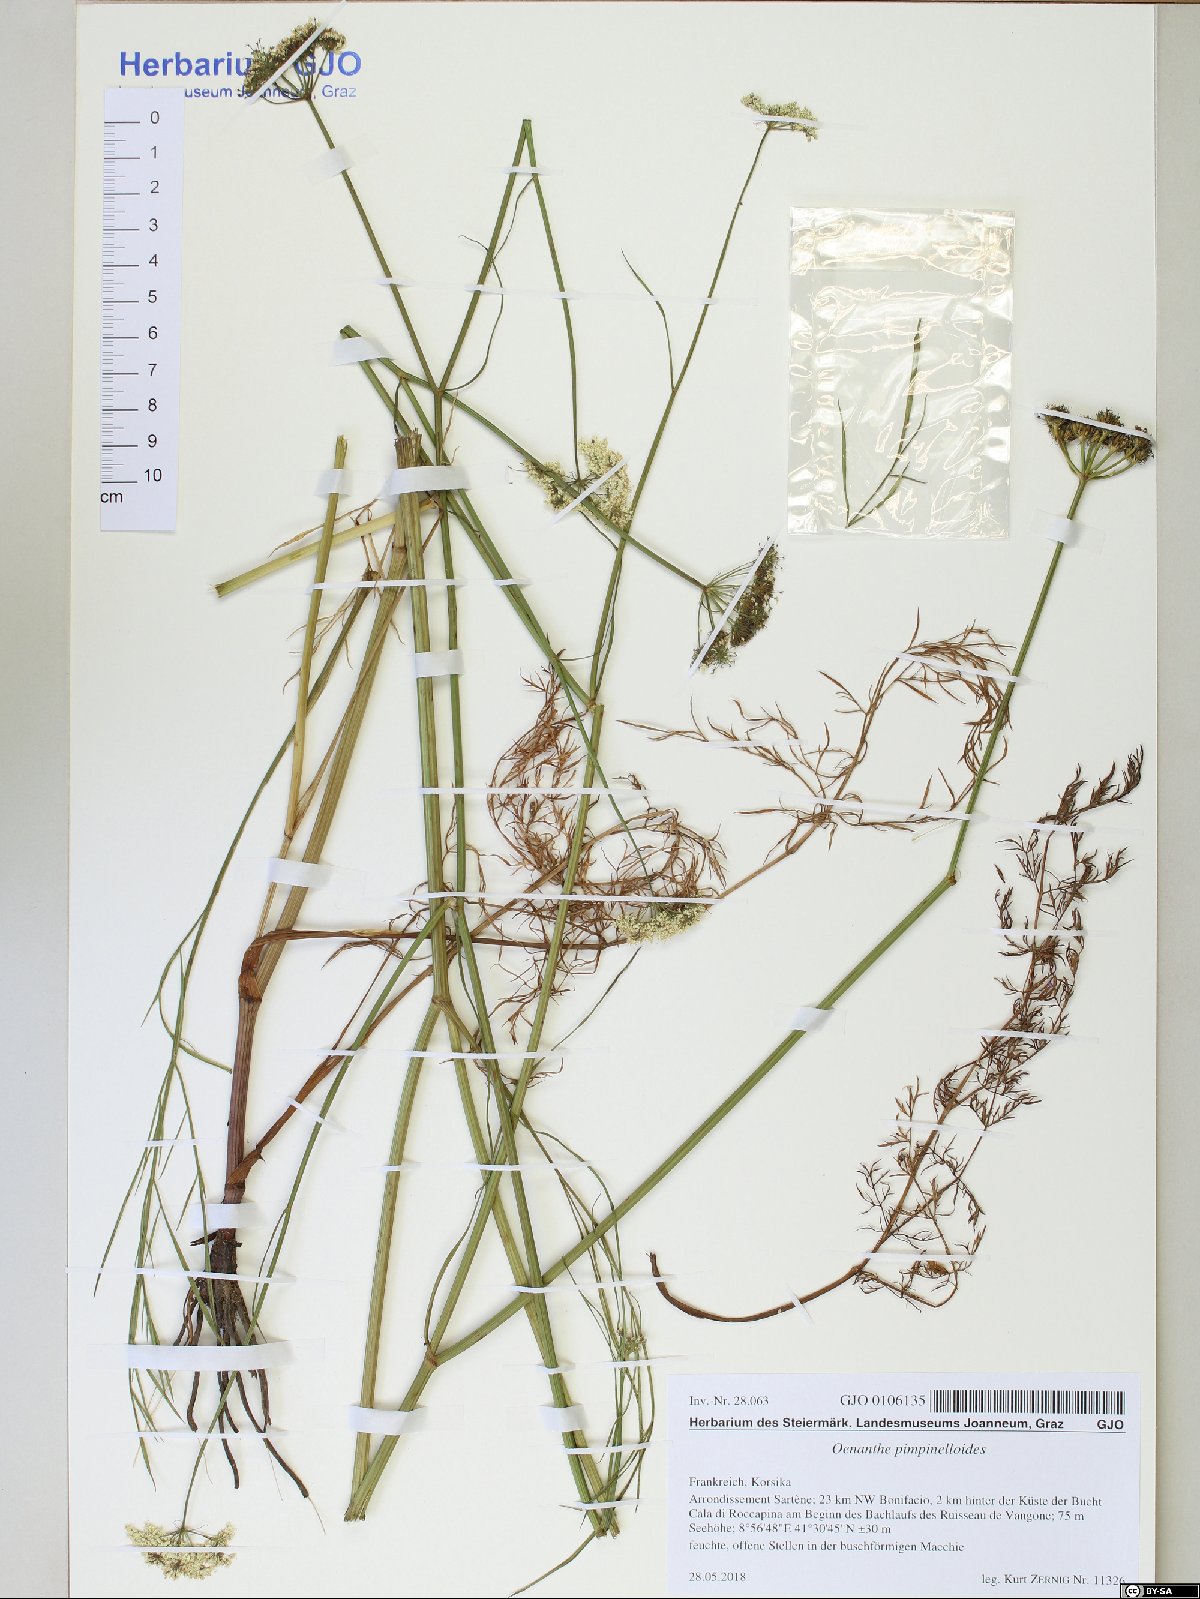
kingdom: Plantae
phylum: Tracheophyta
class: Magnoliopsida
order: Apiales
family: Apiaceae
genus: Oenanthe
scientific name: Oenanthe pimpinelloides
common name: Corky-fruited water-dropwort
